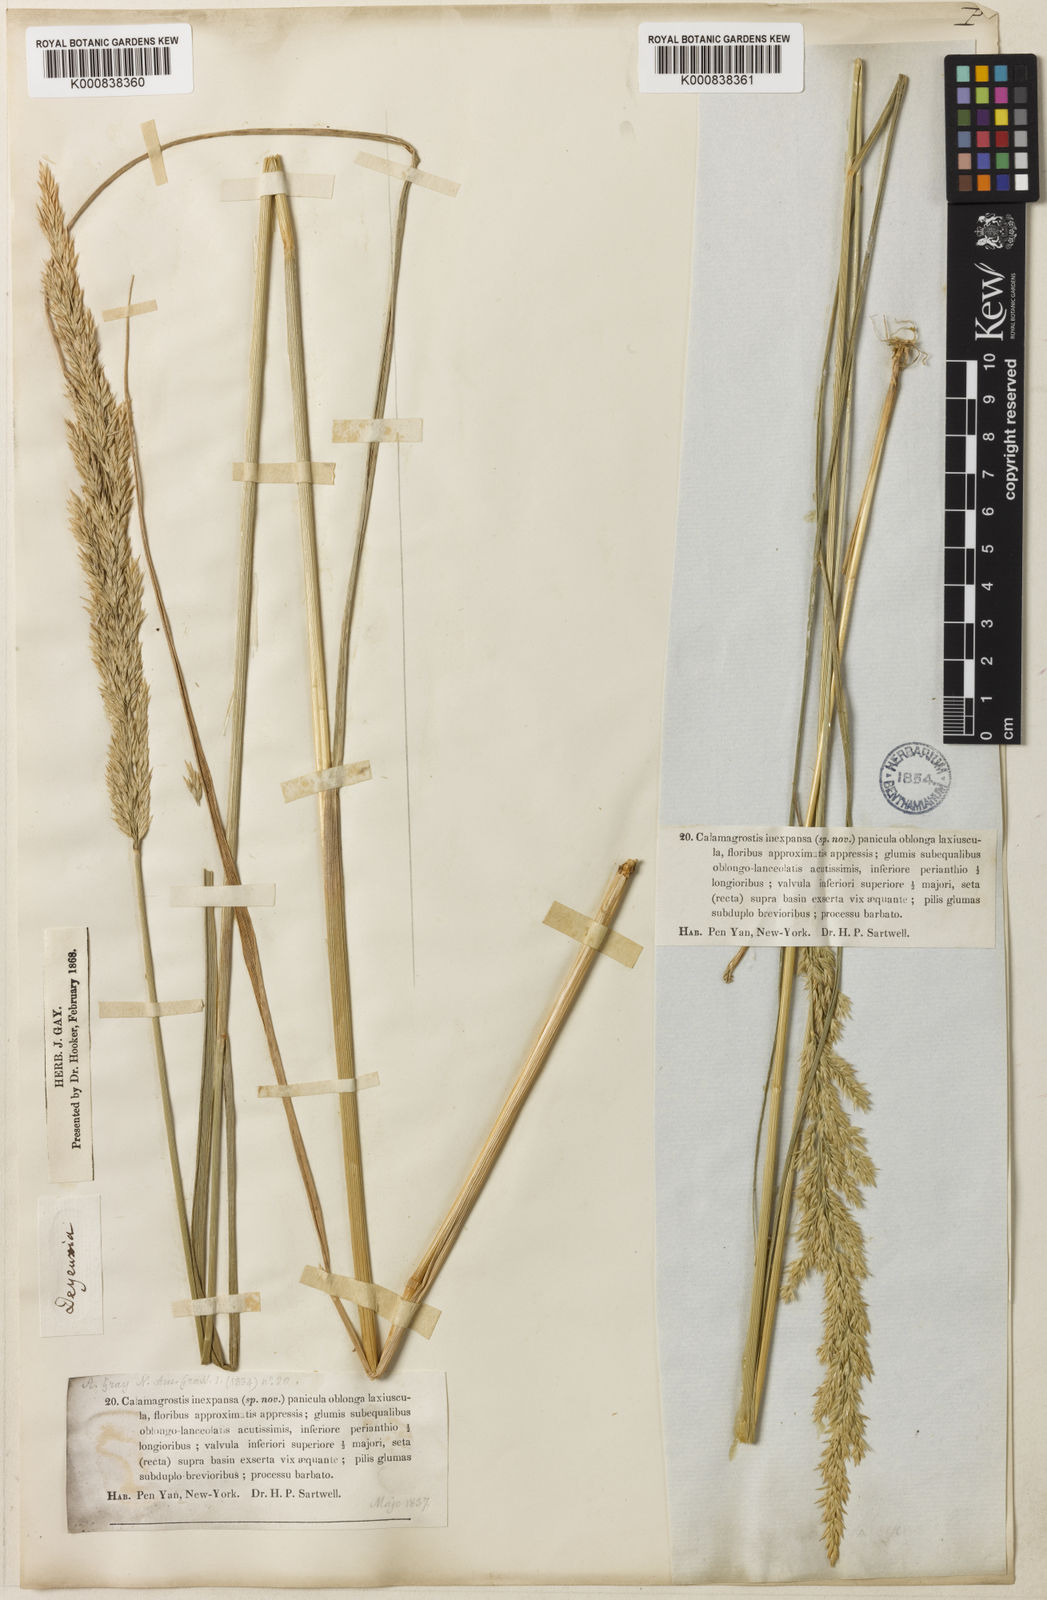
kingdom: Plantae
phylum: Tracheophyta
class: Liliopsida
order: Poales
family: Poaceae
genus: Calamagrostis
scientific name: Calamagrostis inexpansa
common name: Northern reedgrass
